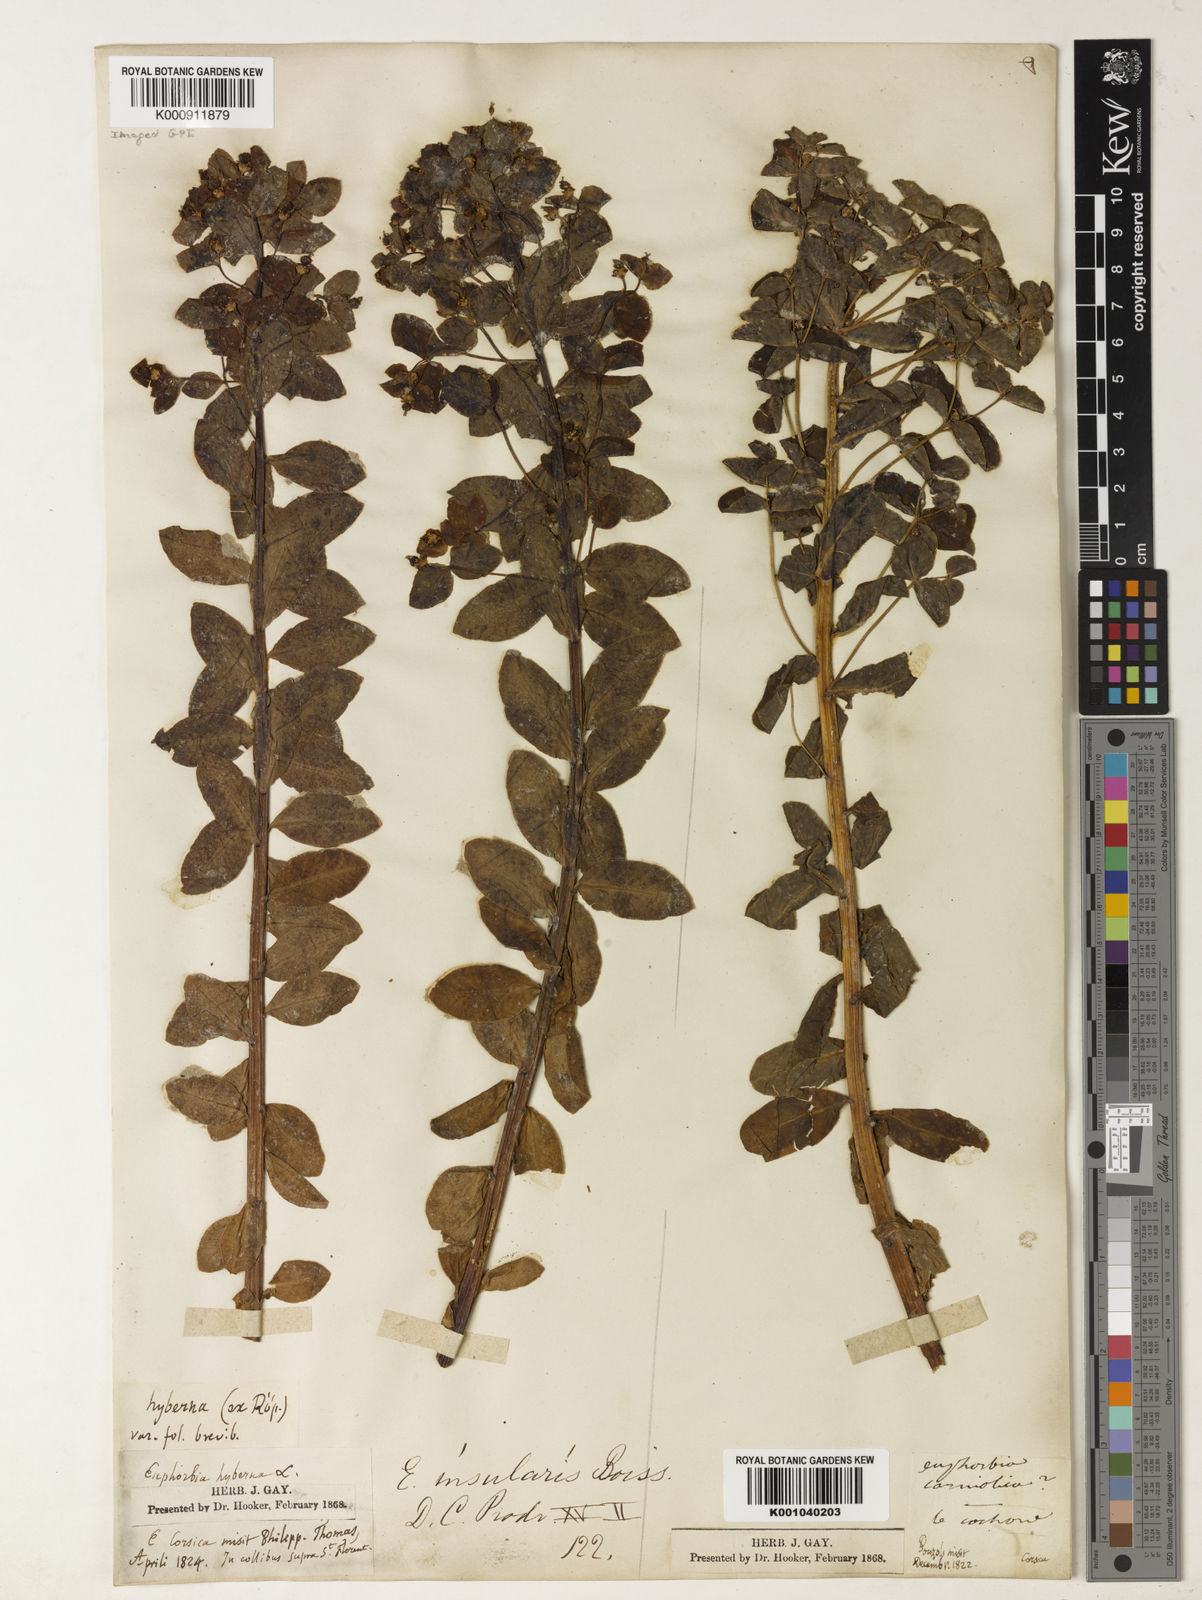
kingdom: Plantae
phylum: Tracheophyta
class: Magnoliopsida
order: Malpighiales
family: Euphorbiaceae
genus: Euphorbia
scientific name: Euphorbia insularis
